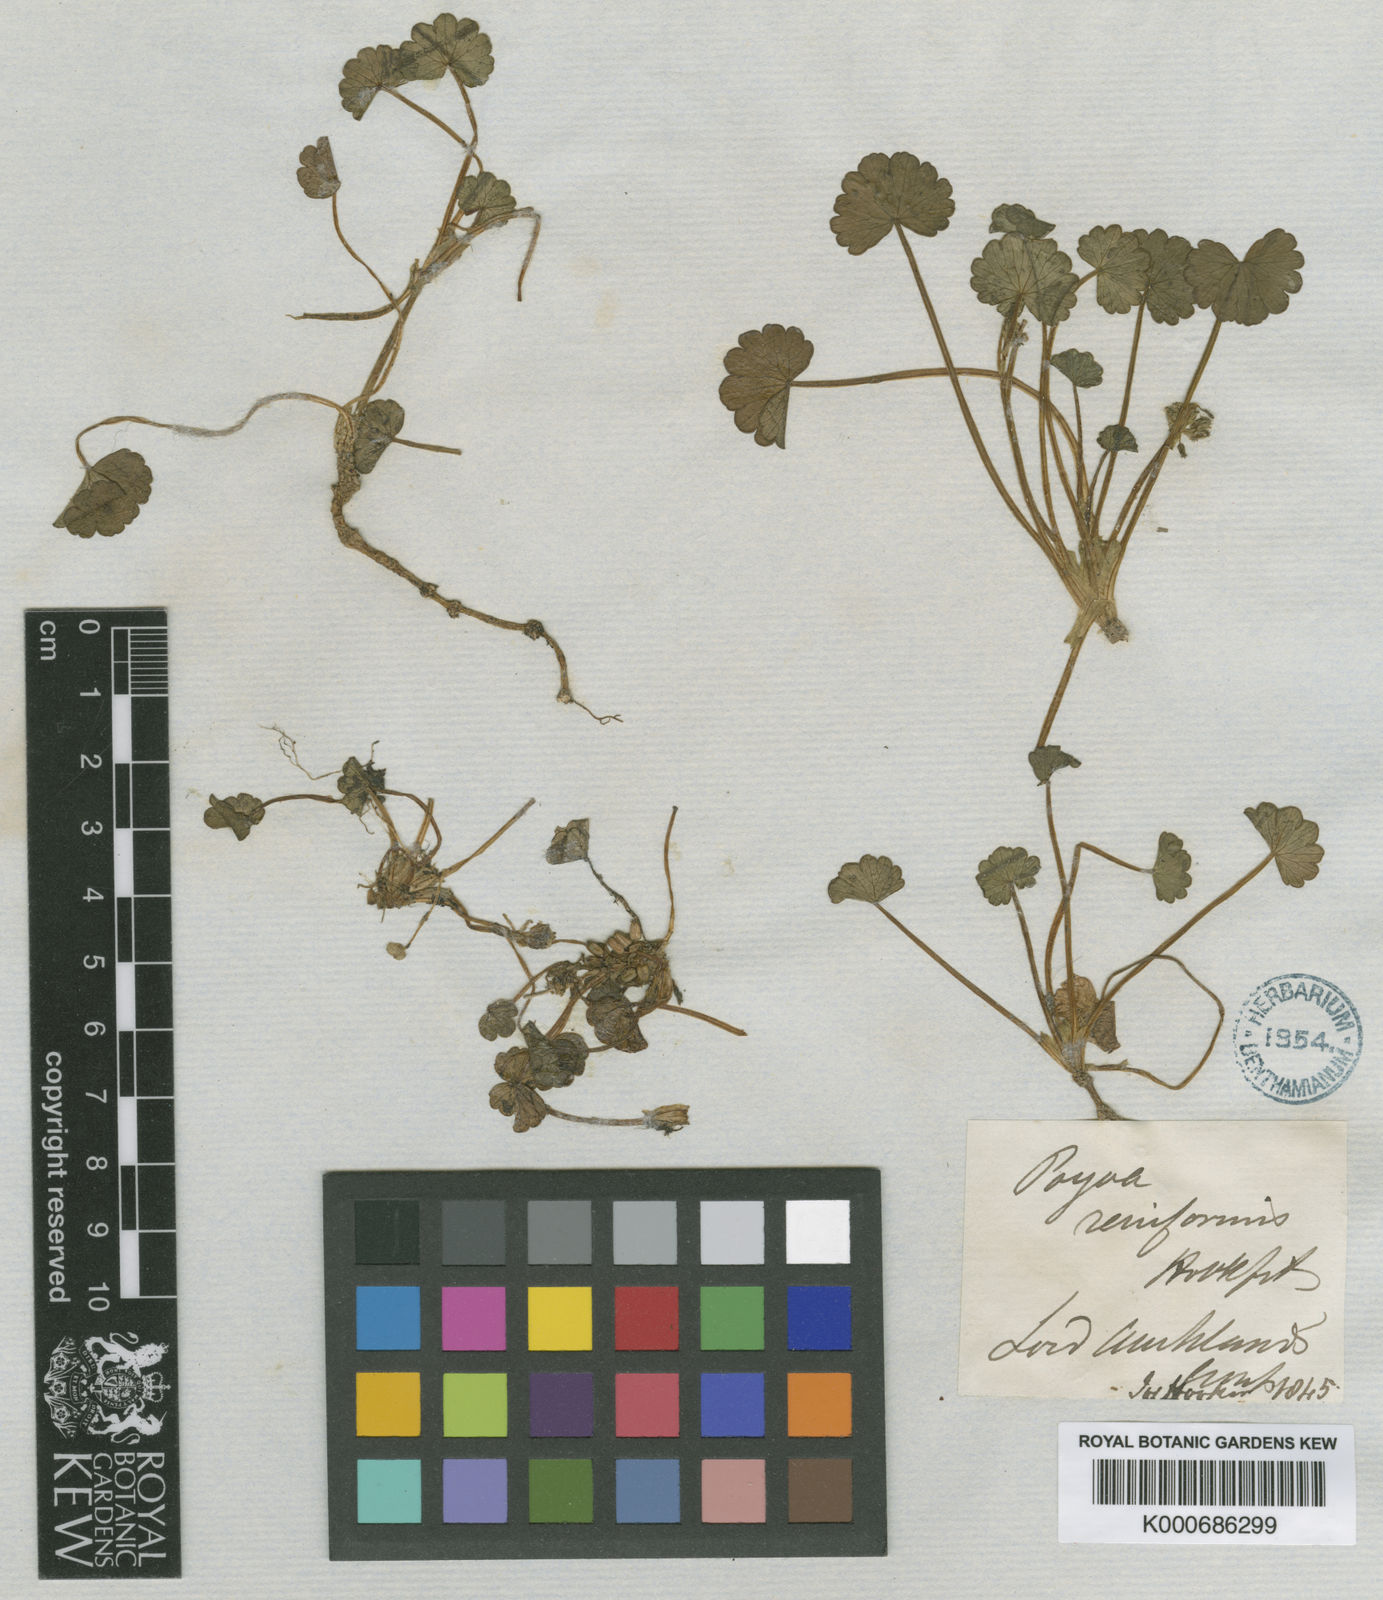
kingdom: Plantae
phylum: Tracheophyta
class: Magnoliopsida
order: Apiales
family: Apiaceae
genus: Azorella
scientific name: Azorella schizeilema
